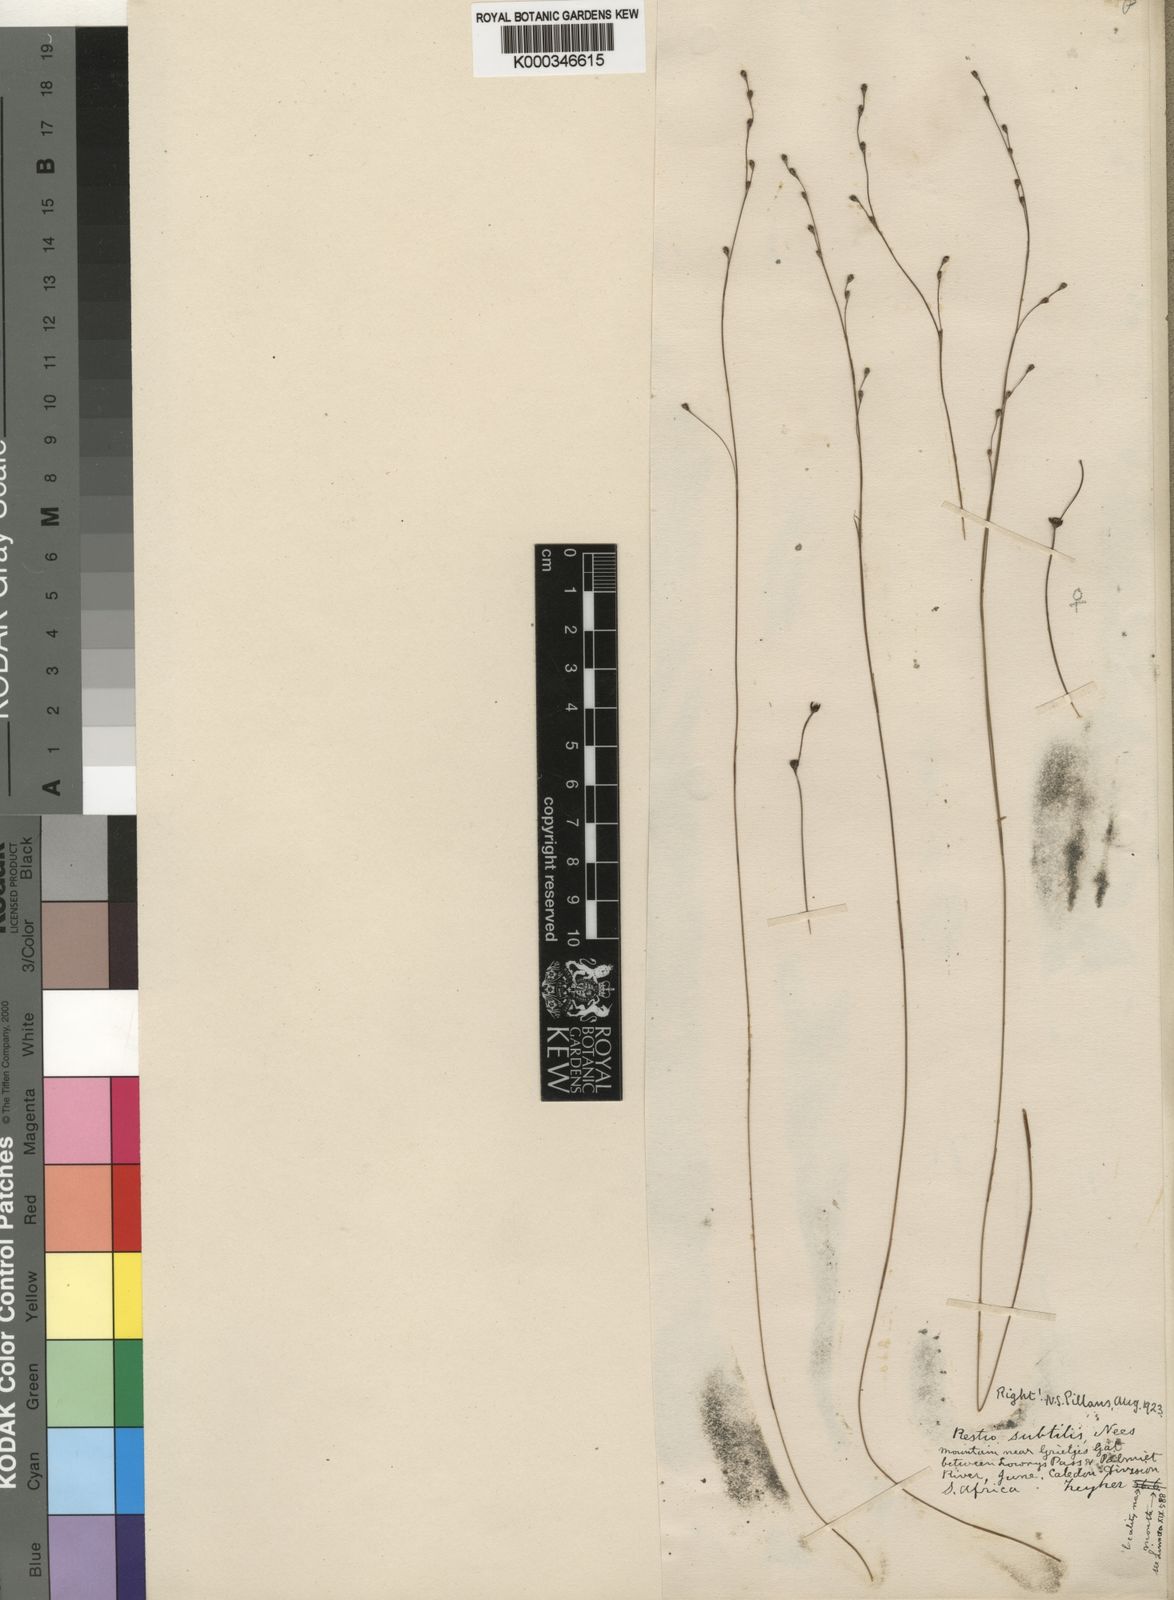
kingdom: Plantae
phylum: Tracheophyta
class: Liliopsida
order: Poales
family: Restionaceae
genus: Restio
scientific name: Restio subtilis
